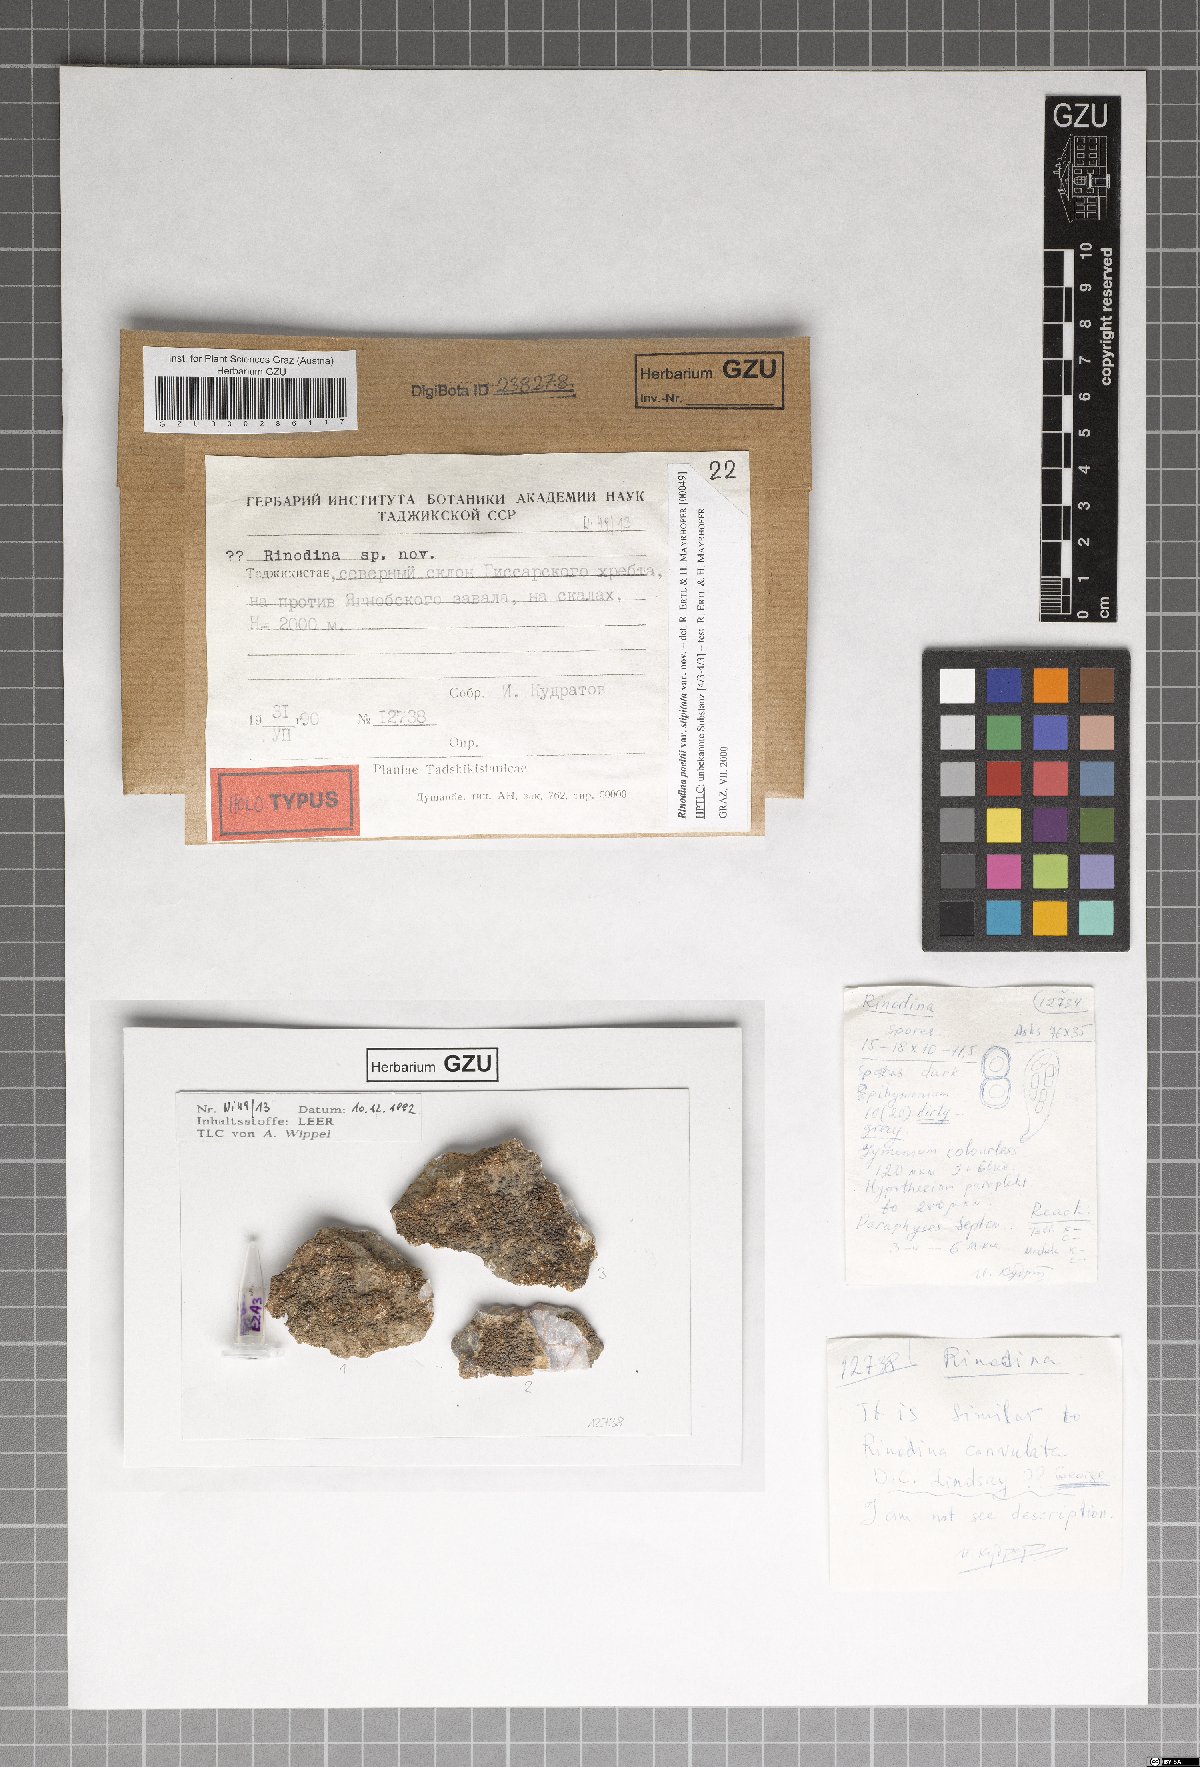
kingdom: Fungi
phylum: Ascomycota
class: Lecanoromycetes
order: Caliciales
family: Physciaceae
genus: Rinodina
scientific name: Rinodina
